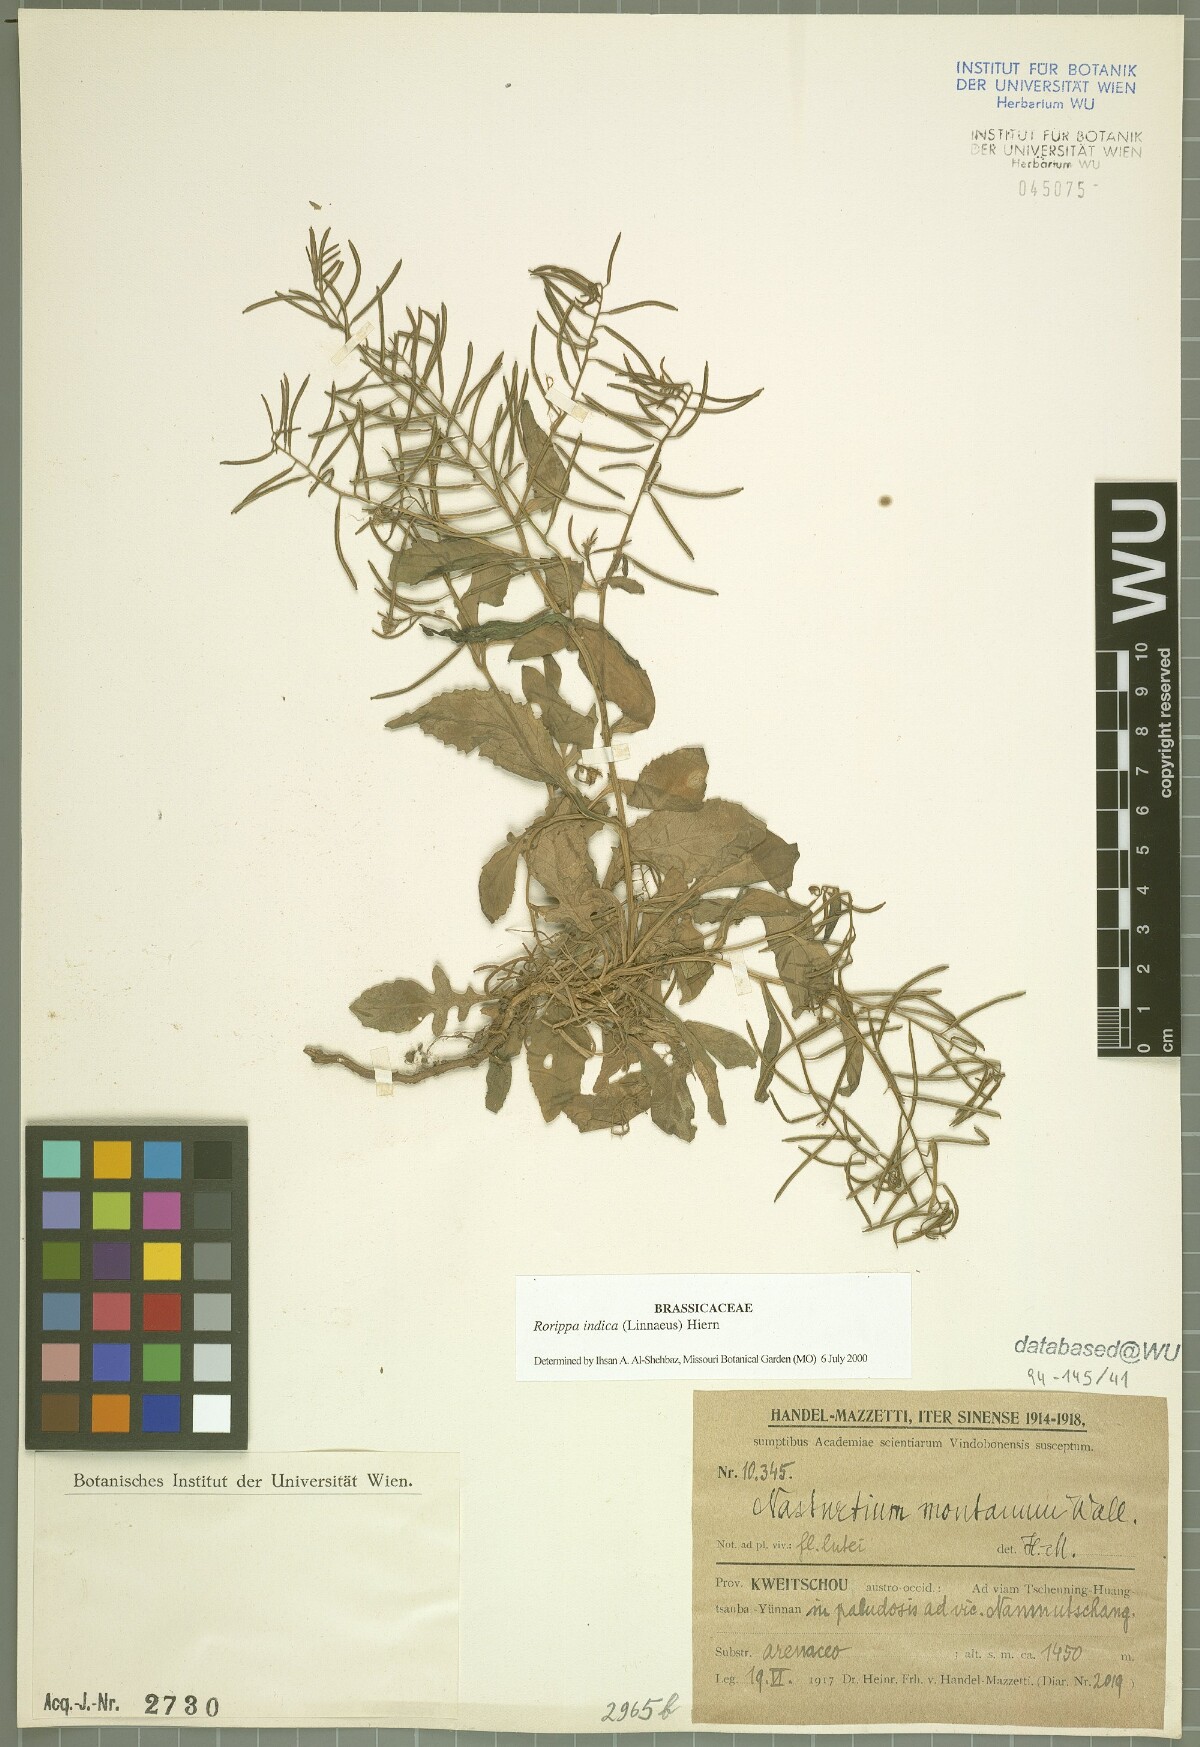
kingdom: Plantae
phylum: Tracheophyta
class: Magnoliopsida
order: Brassicales
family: Brassicaceae
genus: Rorippa
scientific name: Rorippa indica
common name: Variableleaf yellowcress
